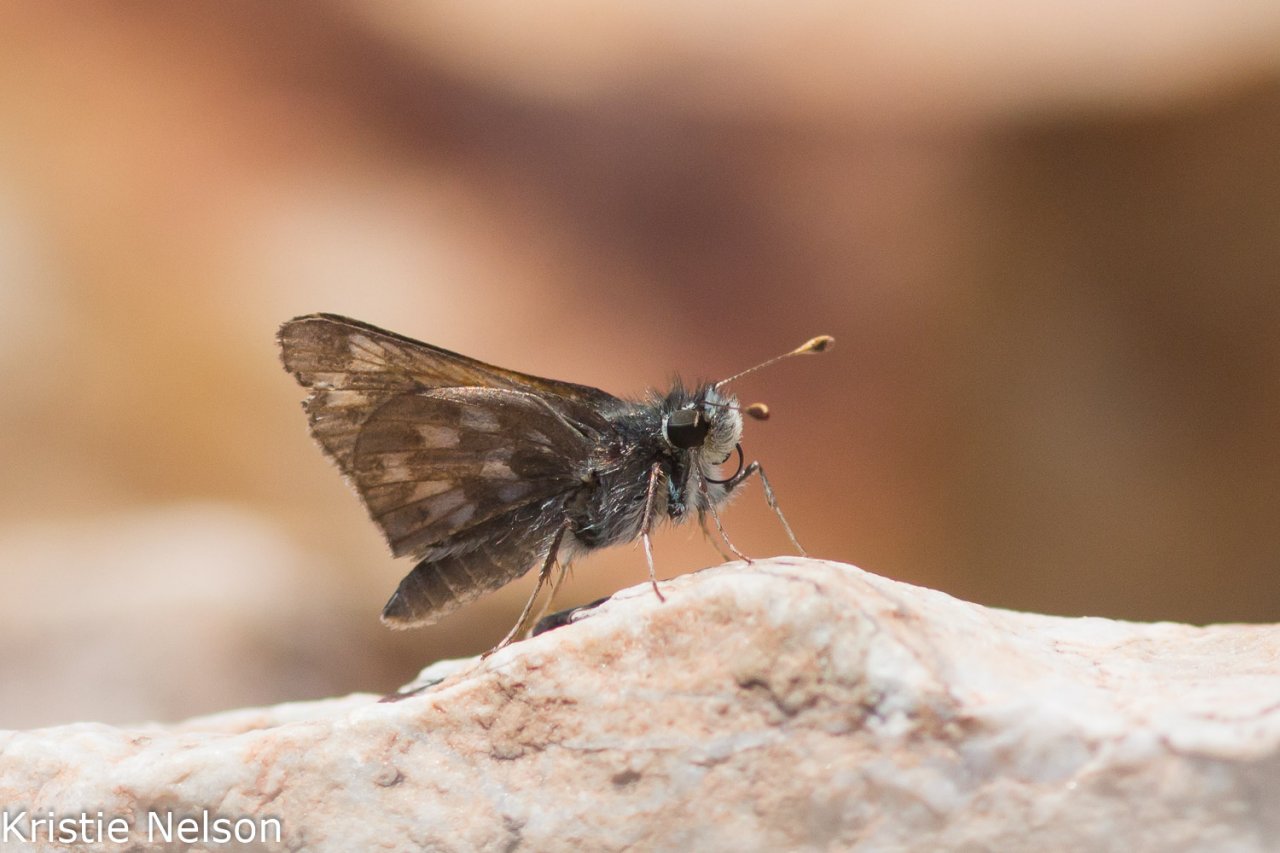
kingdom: Animalia
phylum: Arthropoda
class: Insecta
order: Lepidoptera
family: Hesperiidae
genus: Hesperia
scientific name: Hesperia miriamae
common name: Sierra Skipper
